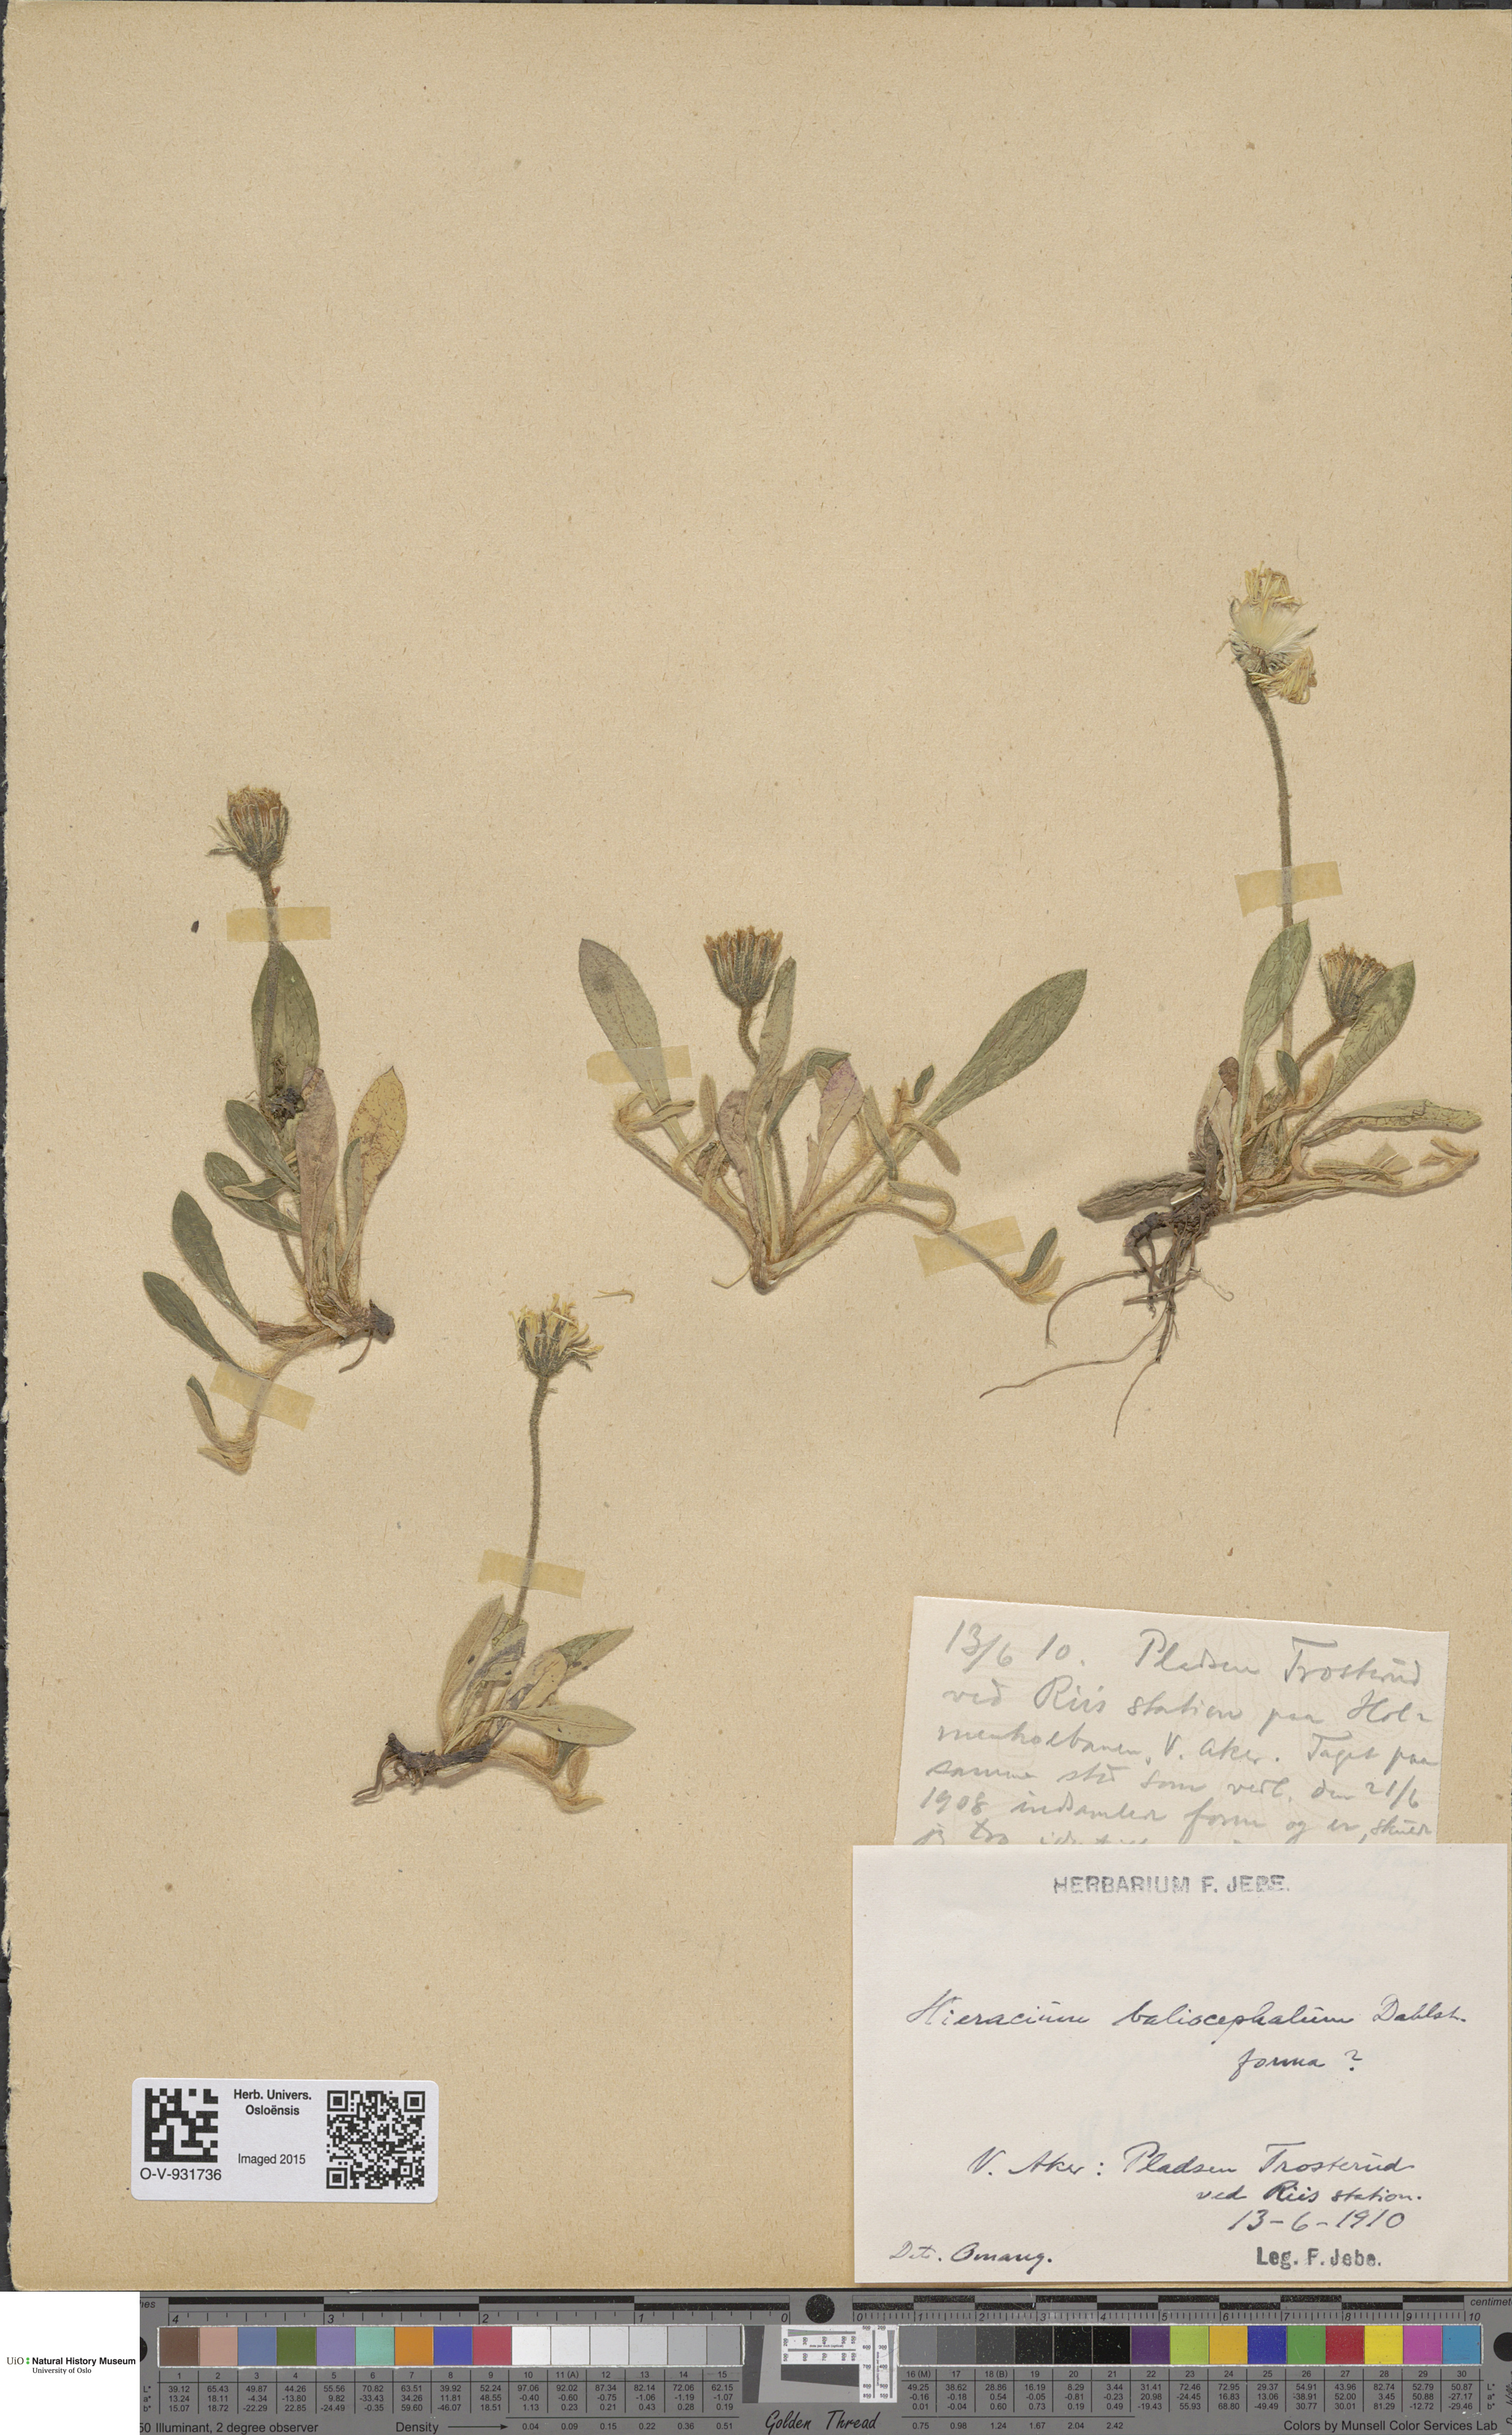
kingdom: Plantae
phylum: Tracheophyta
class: Magnoliopsida
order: Asterales
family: Asteraceae
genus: Hieracium
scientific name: Hieracium
